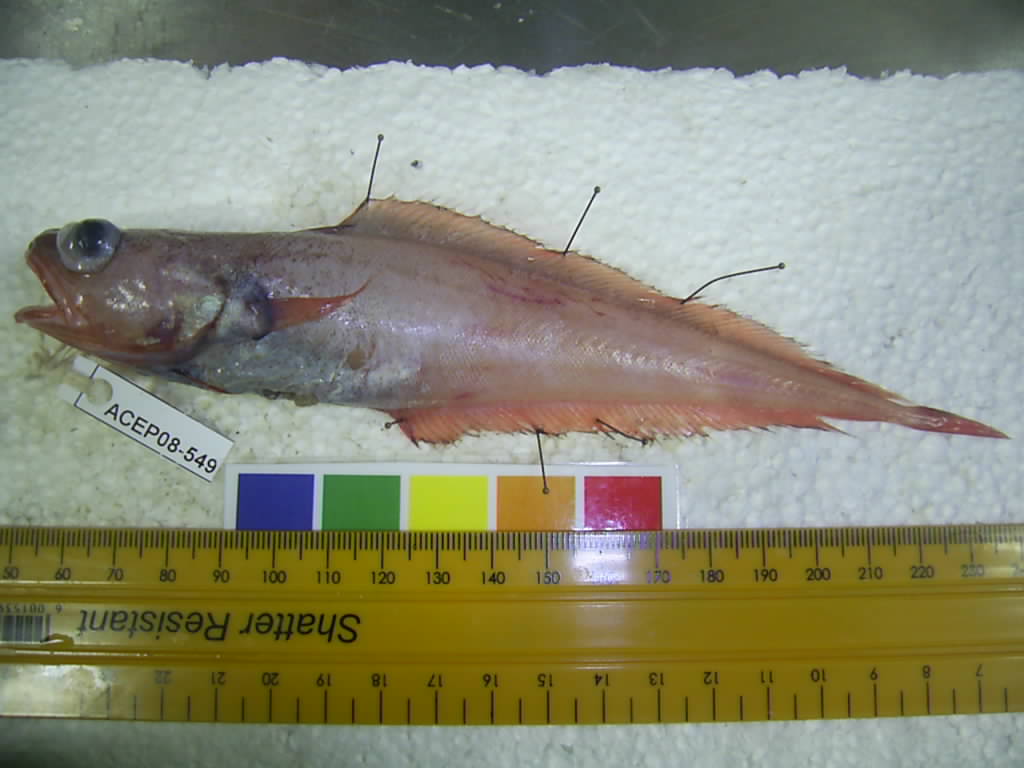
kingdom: Animalia
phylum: Chordata
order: Gadiformes
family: Moridae
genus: Physiculus
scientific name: Physiculus natalensis
